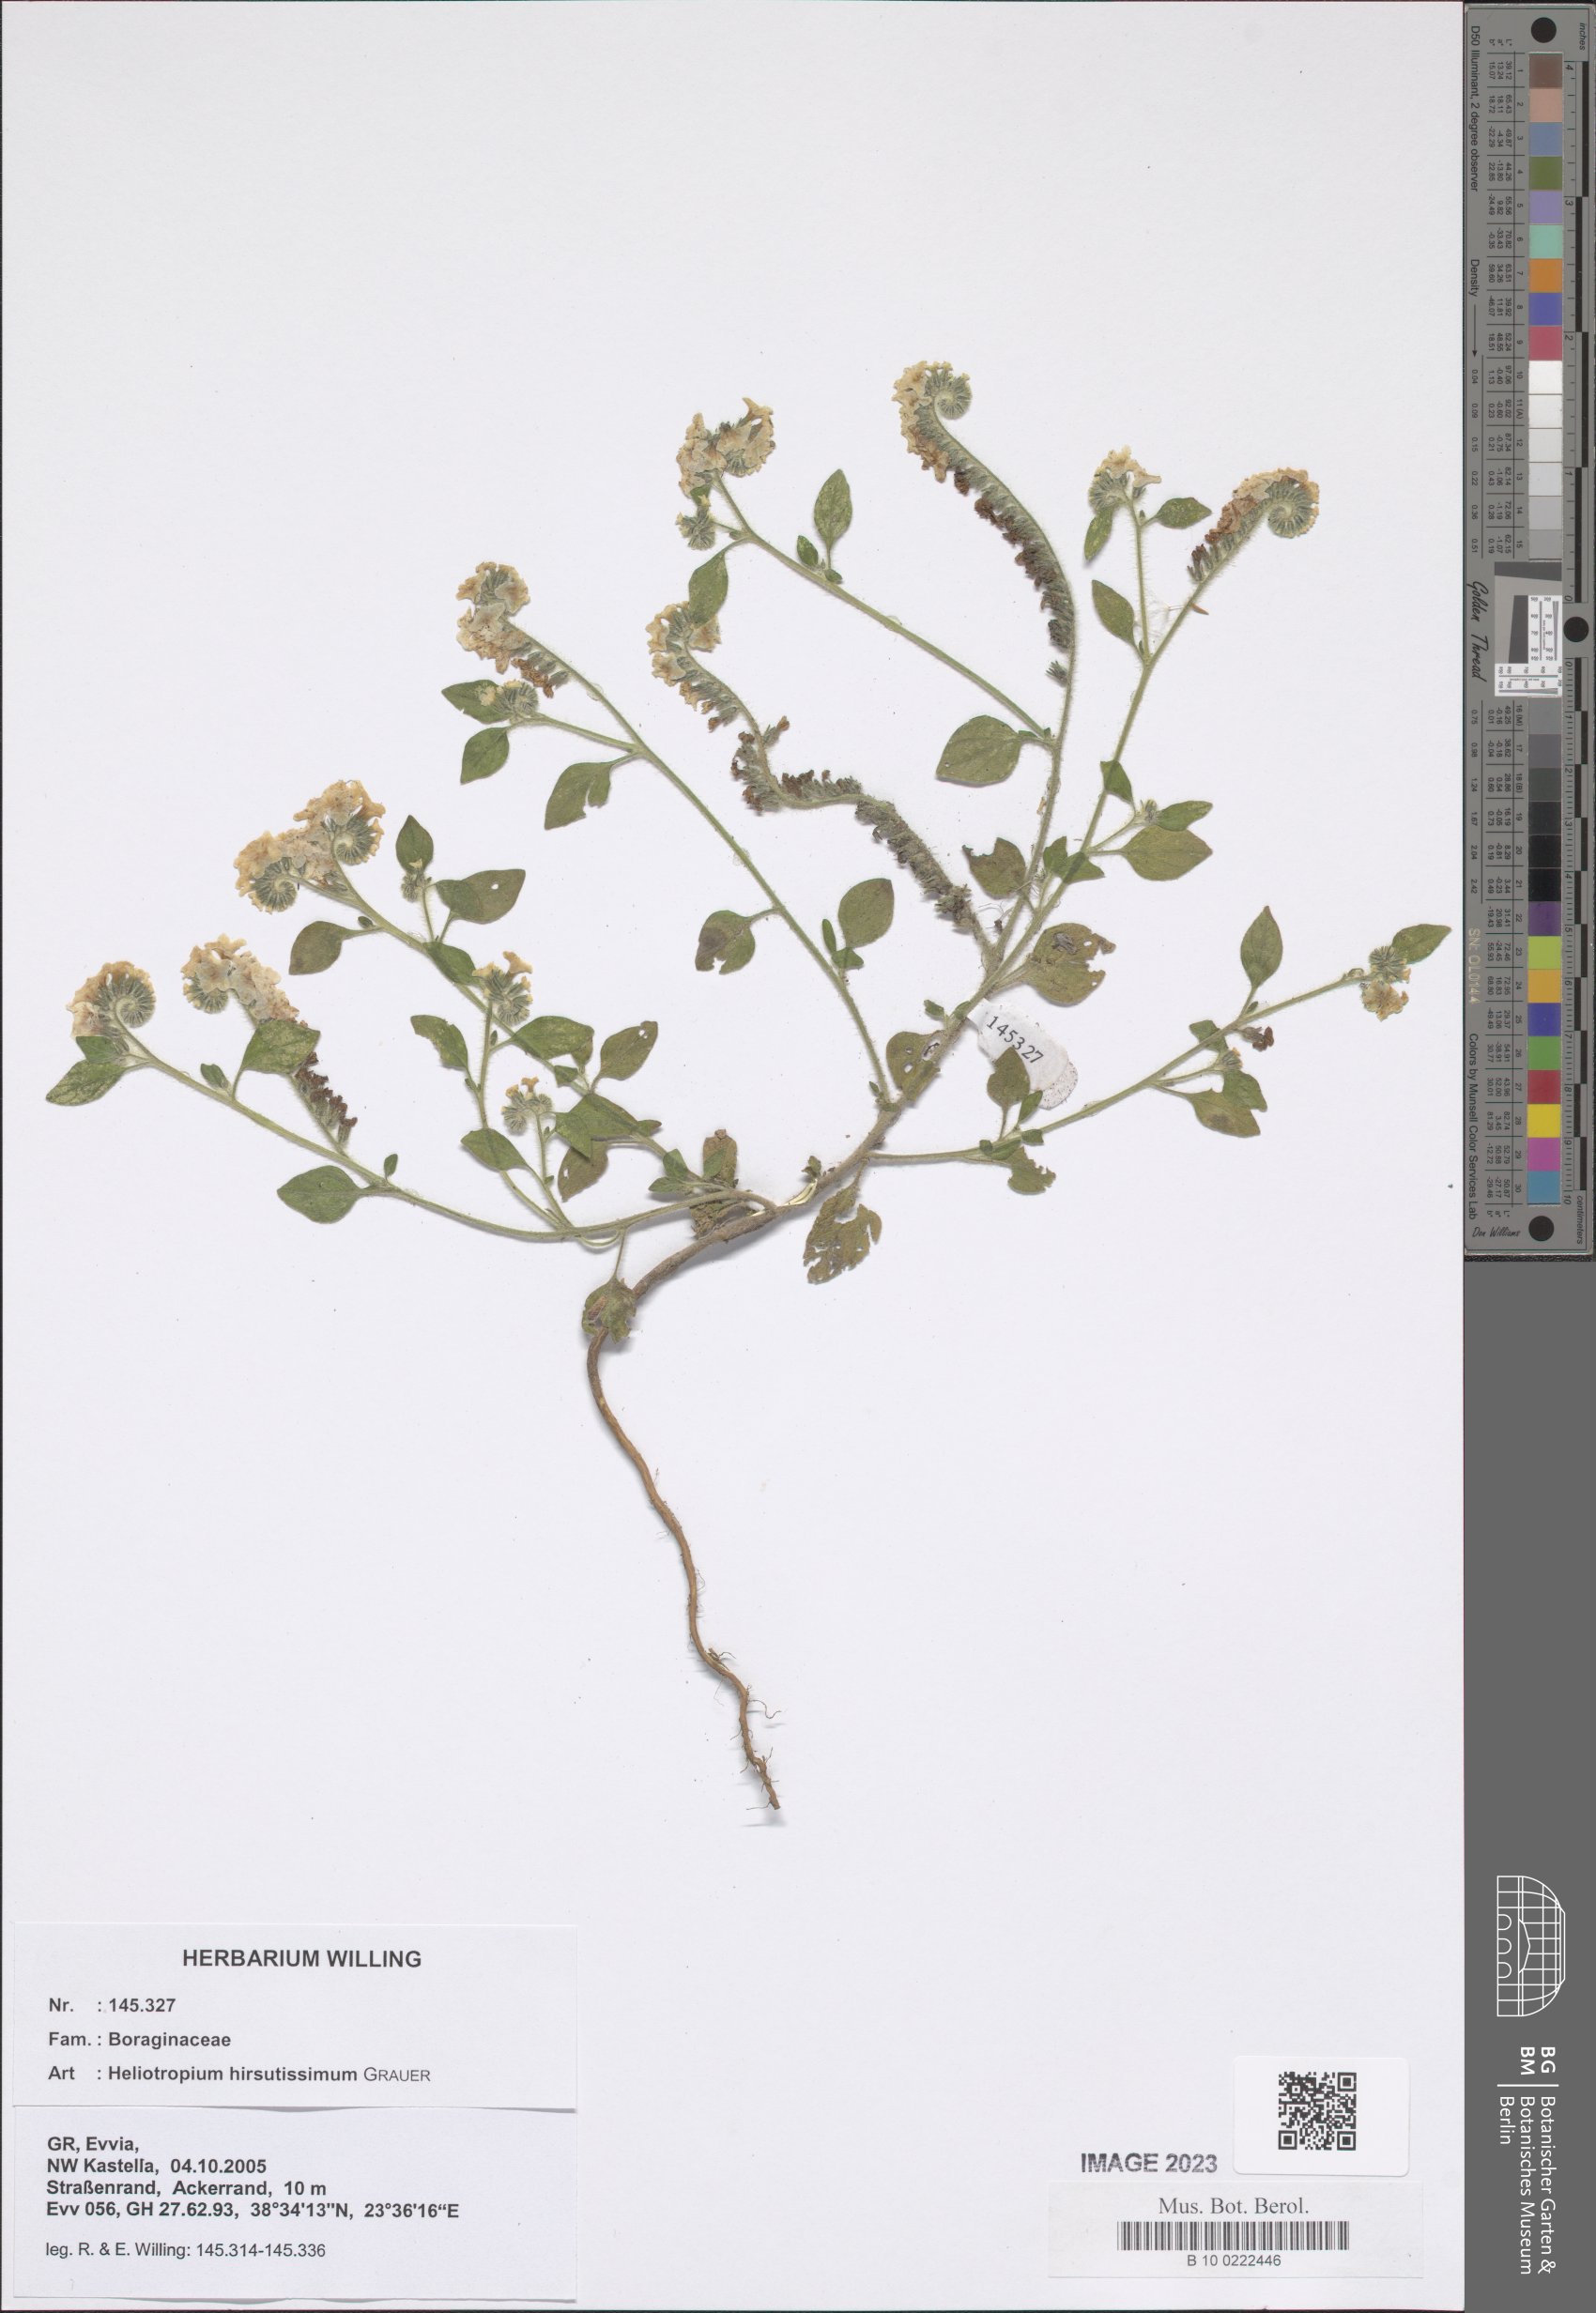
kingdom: Plantae
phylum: Tracheophyta
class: Magnoliopsida
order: Boraginales
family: Heliotropiaceae
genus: Heliotropium
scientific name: Heliotropium hirsutissimum
